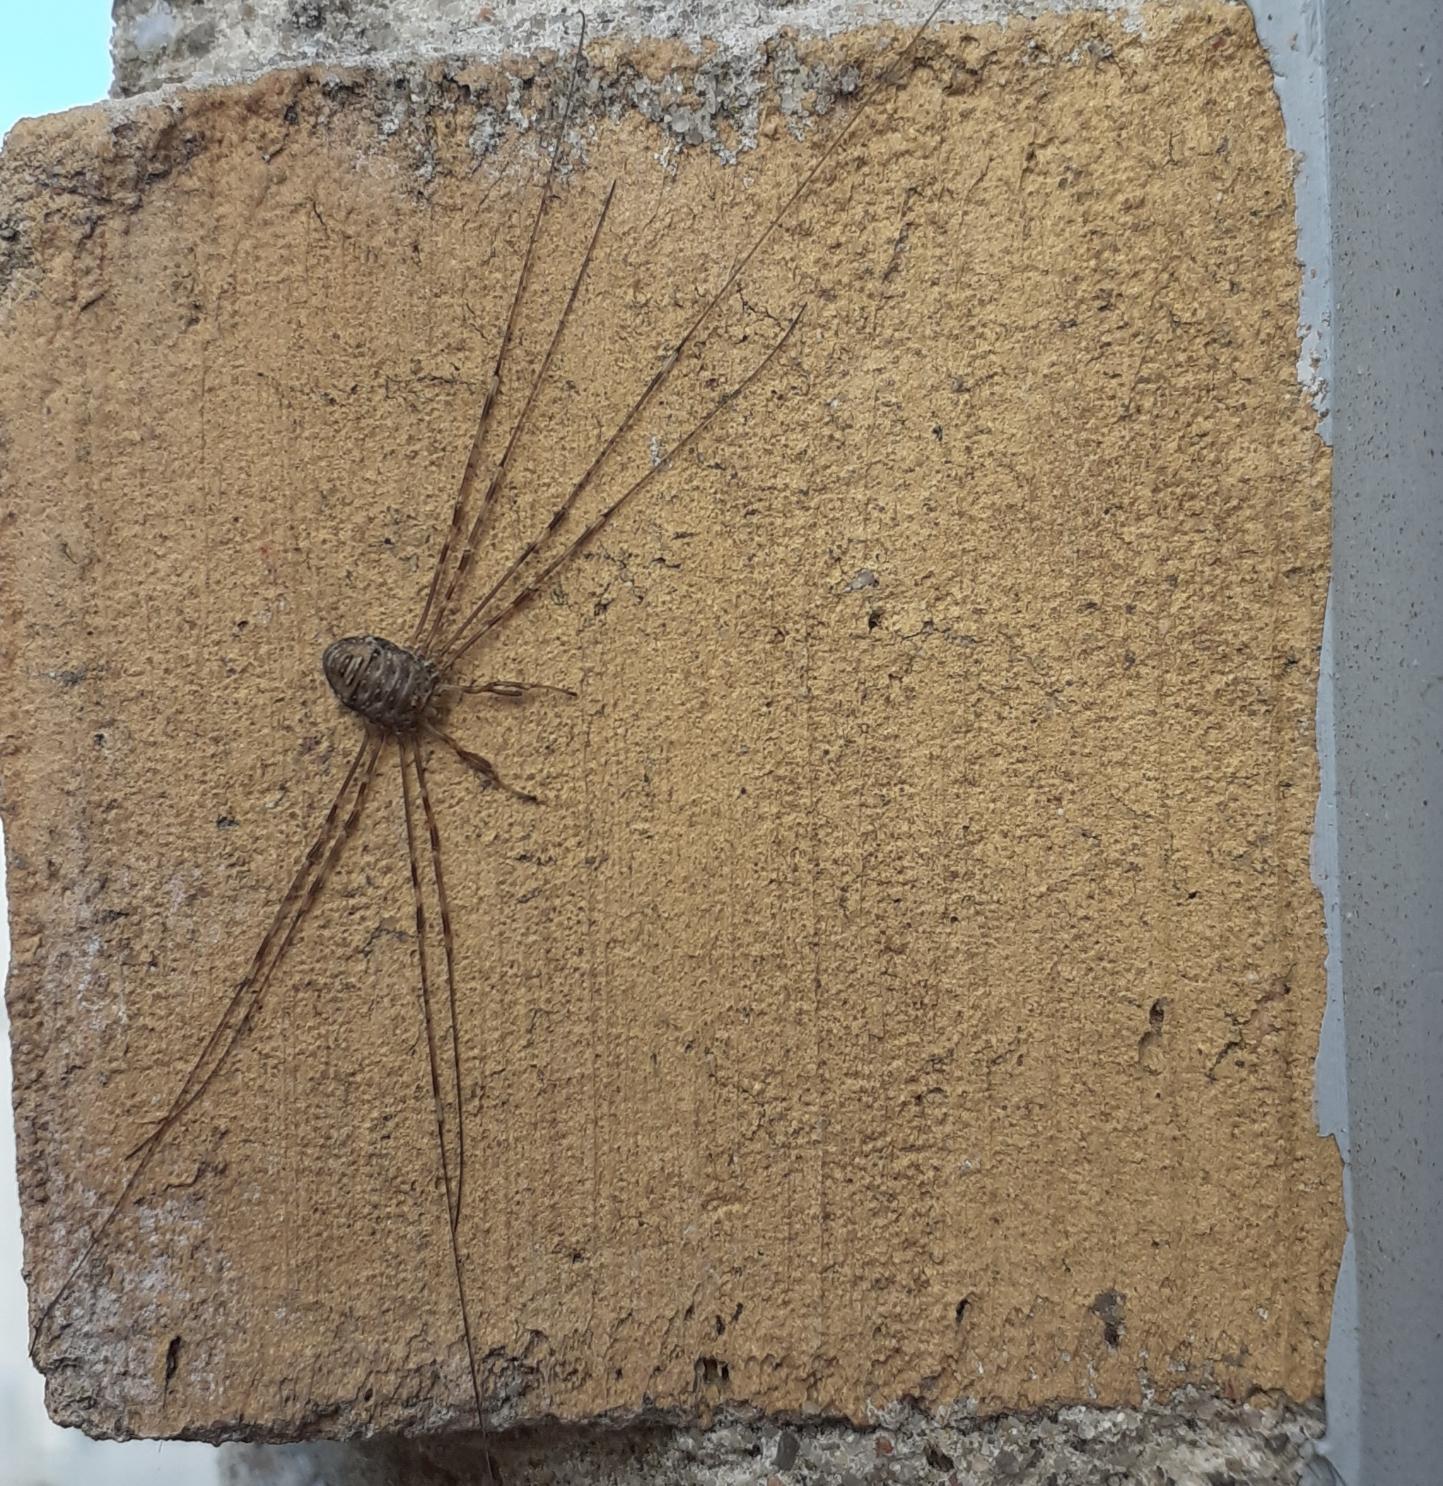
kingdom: Animalia
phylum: Arthropoda
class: Arachnida
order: Opiliones
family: Phalangiidae
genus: Dicranopalpus
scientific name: Dicranopalpus ramosus
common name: Gaffelmejer
